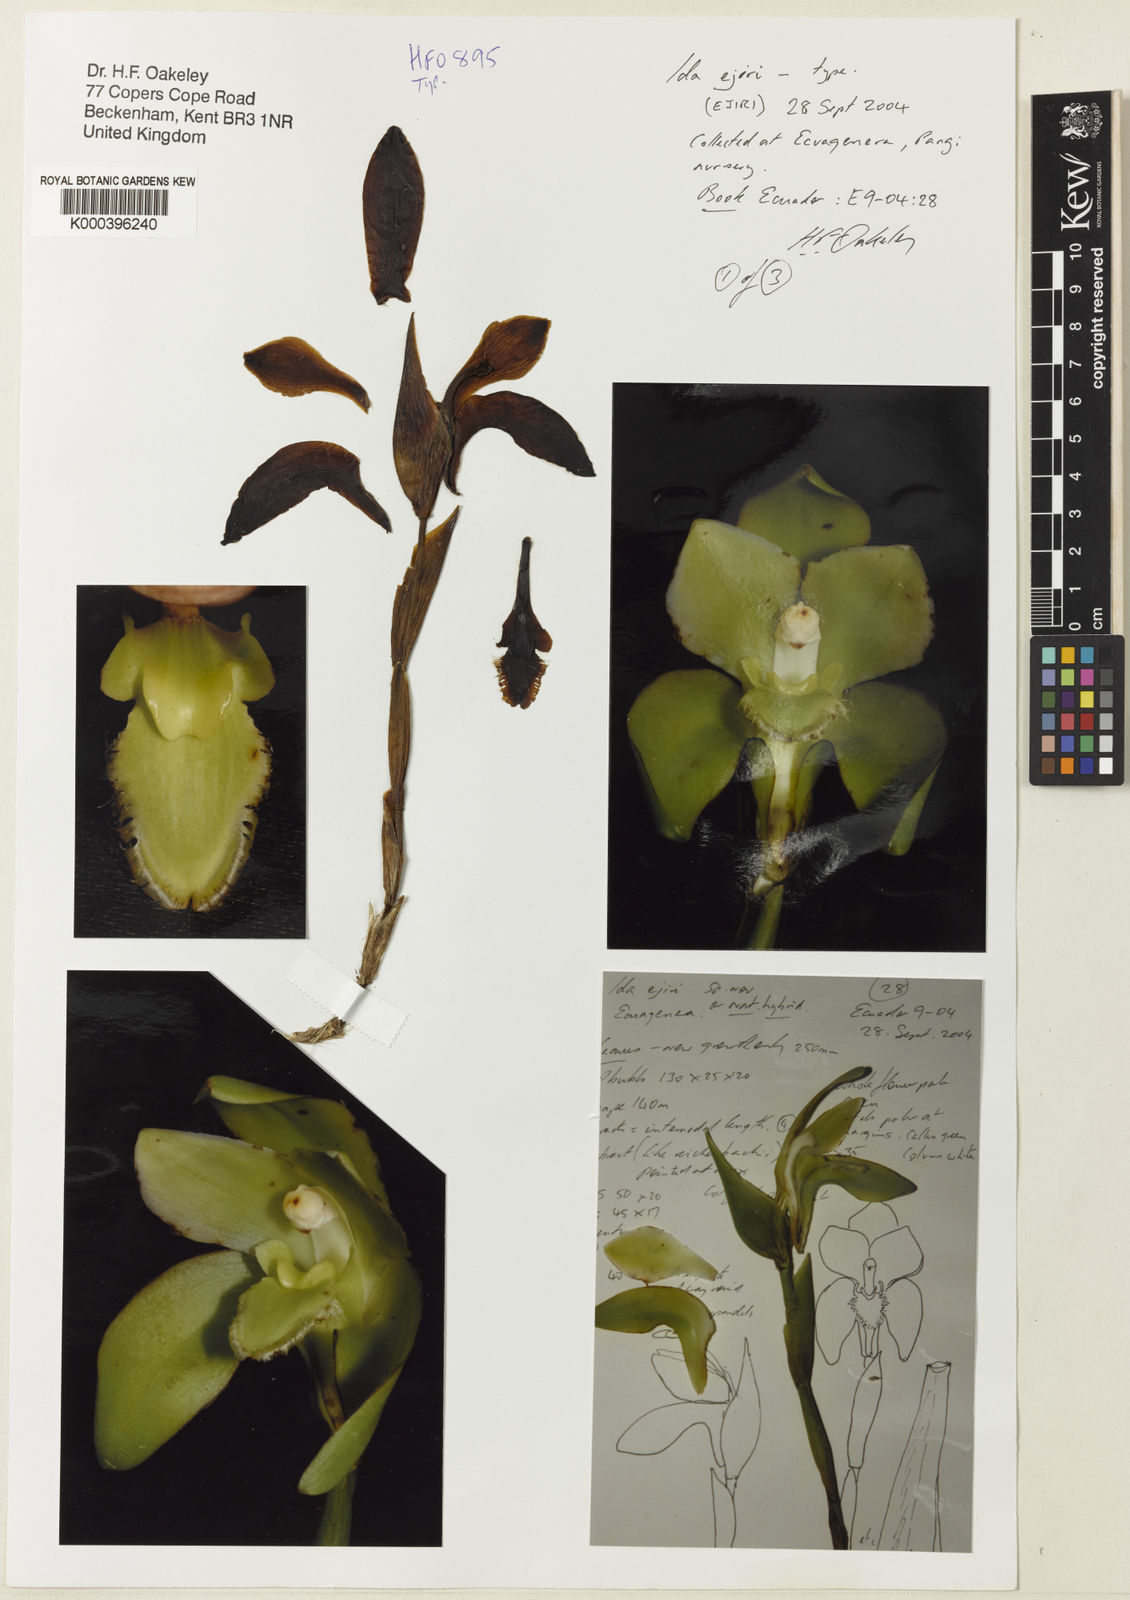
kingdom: Plantae
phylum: Tracheophyta
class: Liliopsida
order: Asparagales
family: Orchidaceae
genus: Ida
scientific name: Ida ejirii
